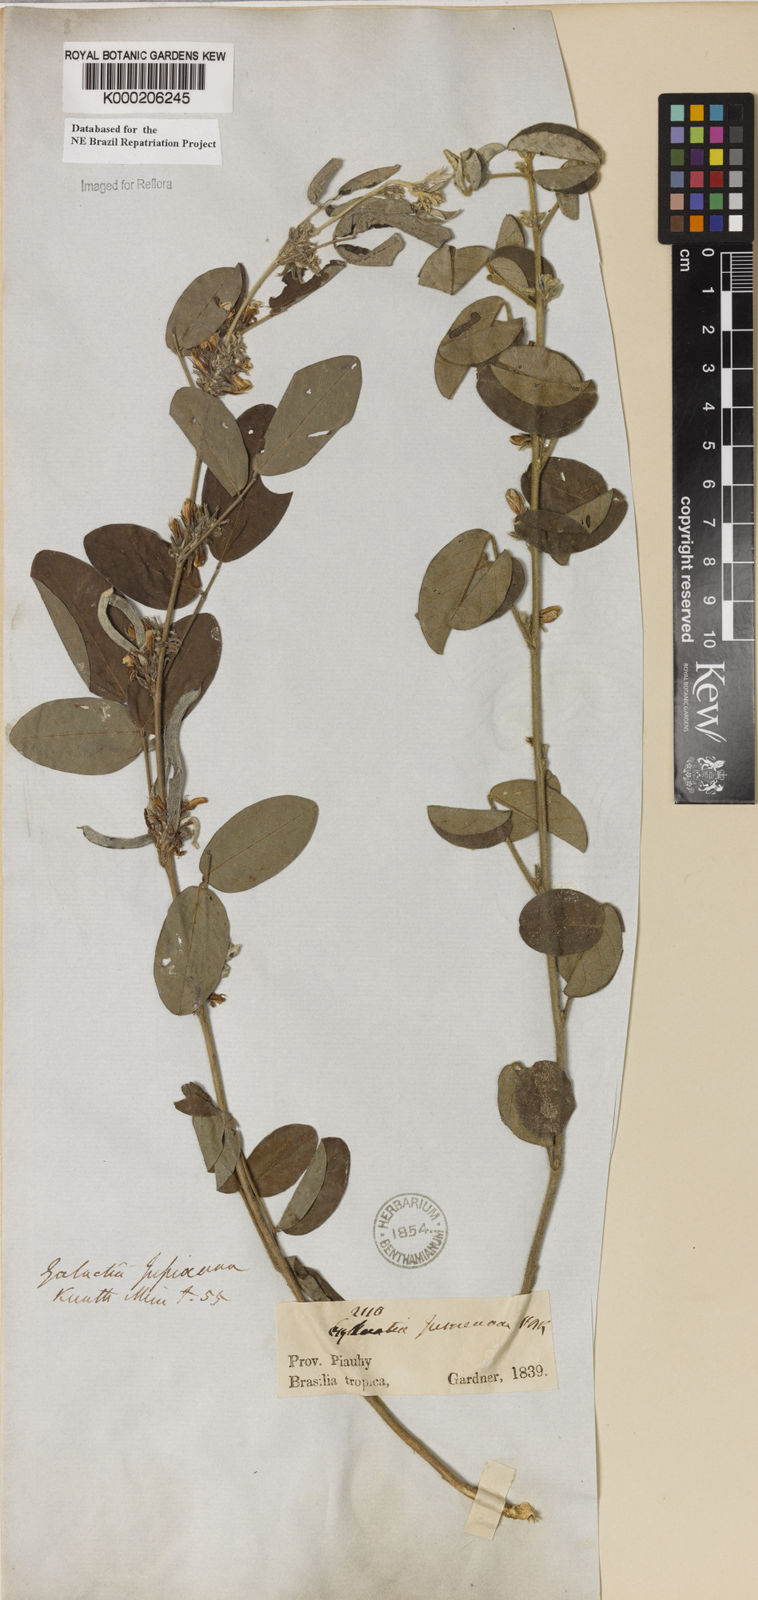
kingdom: Plantae
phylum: Tracheophyta
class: Magnoliopsida
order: Fabales
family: Fabaceae
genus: Galactia
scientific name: Galactia jussiaeana
